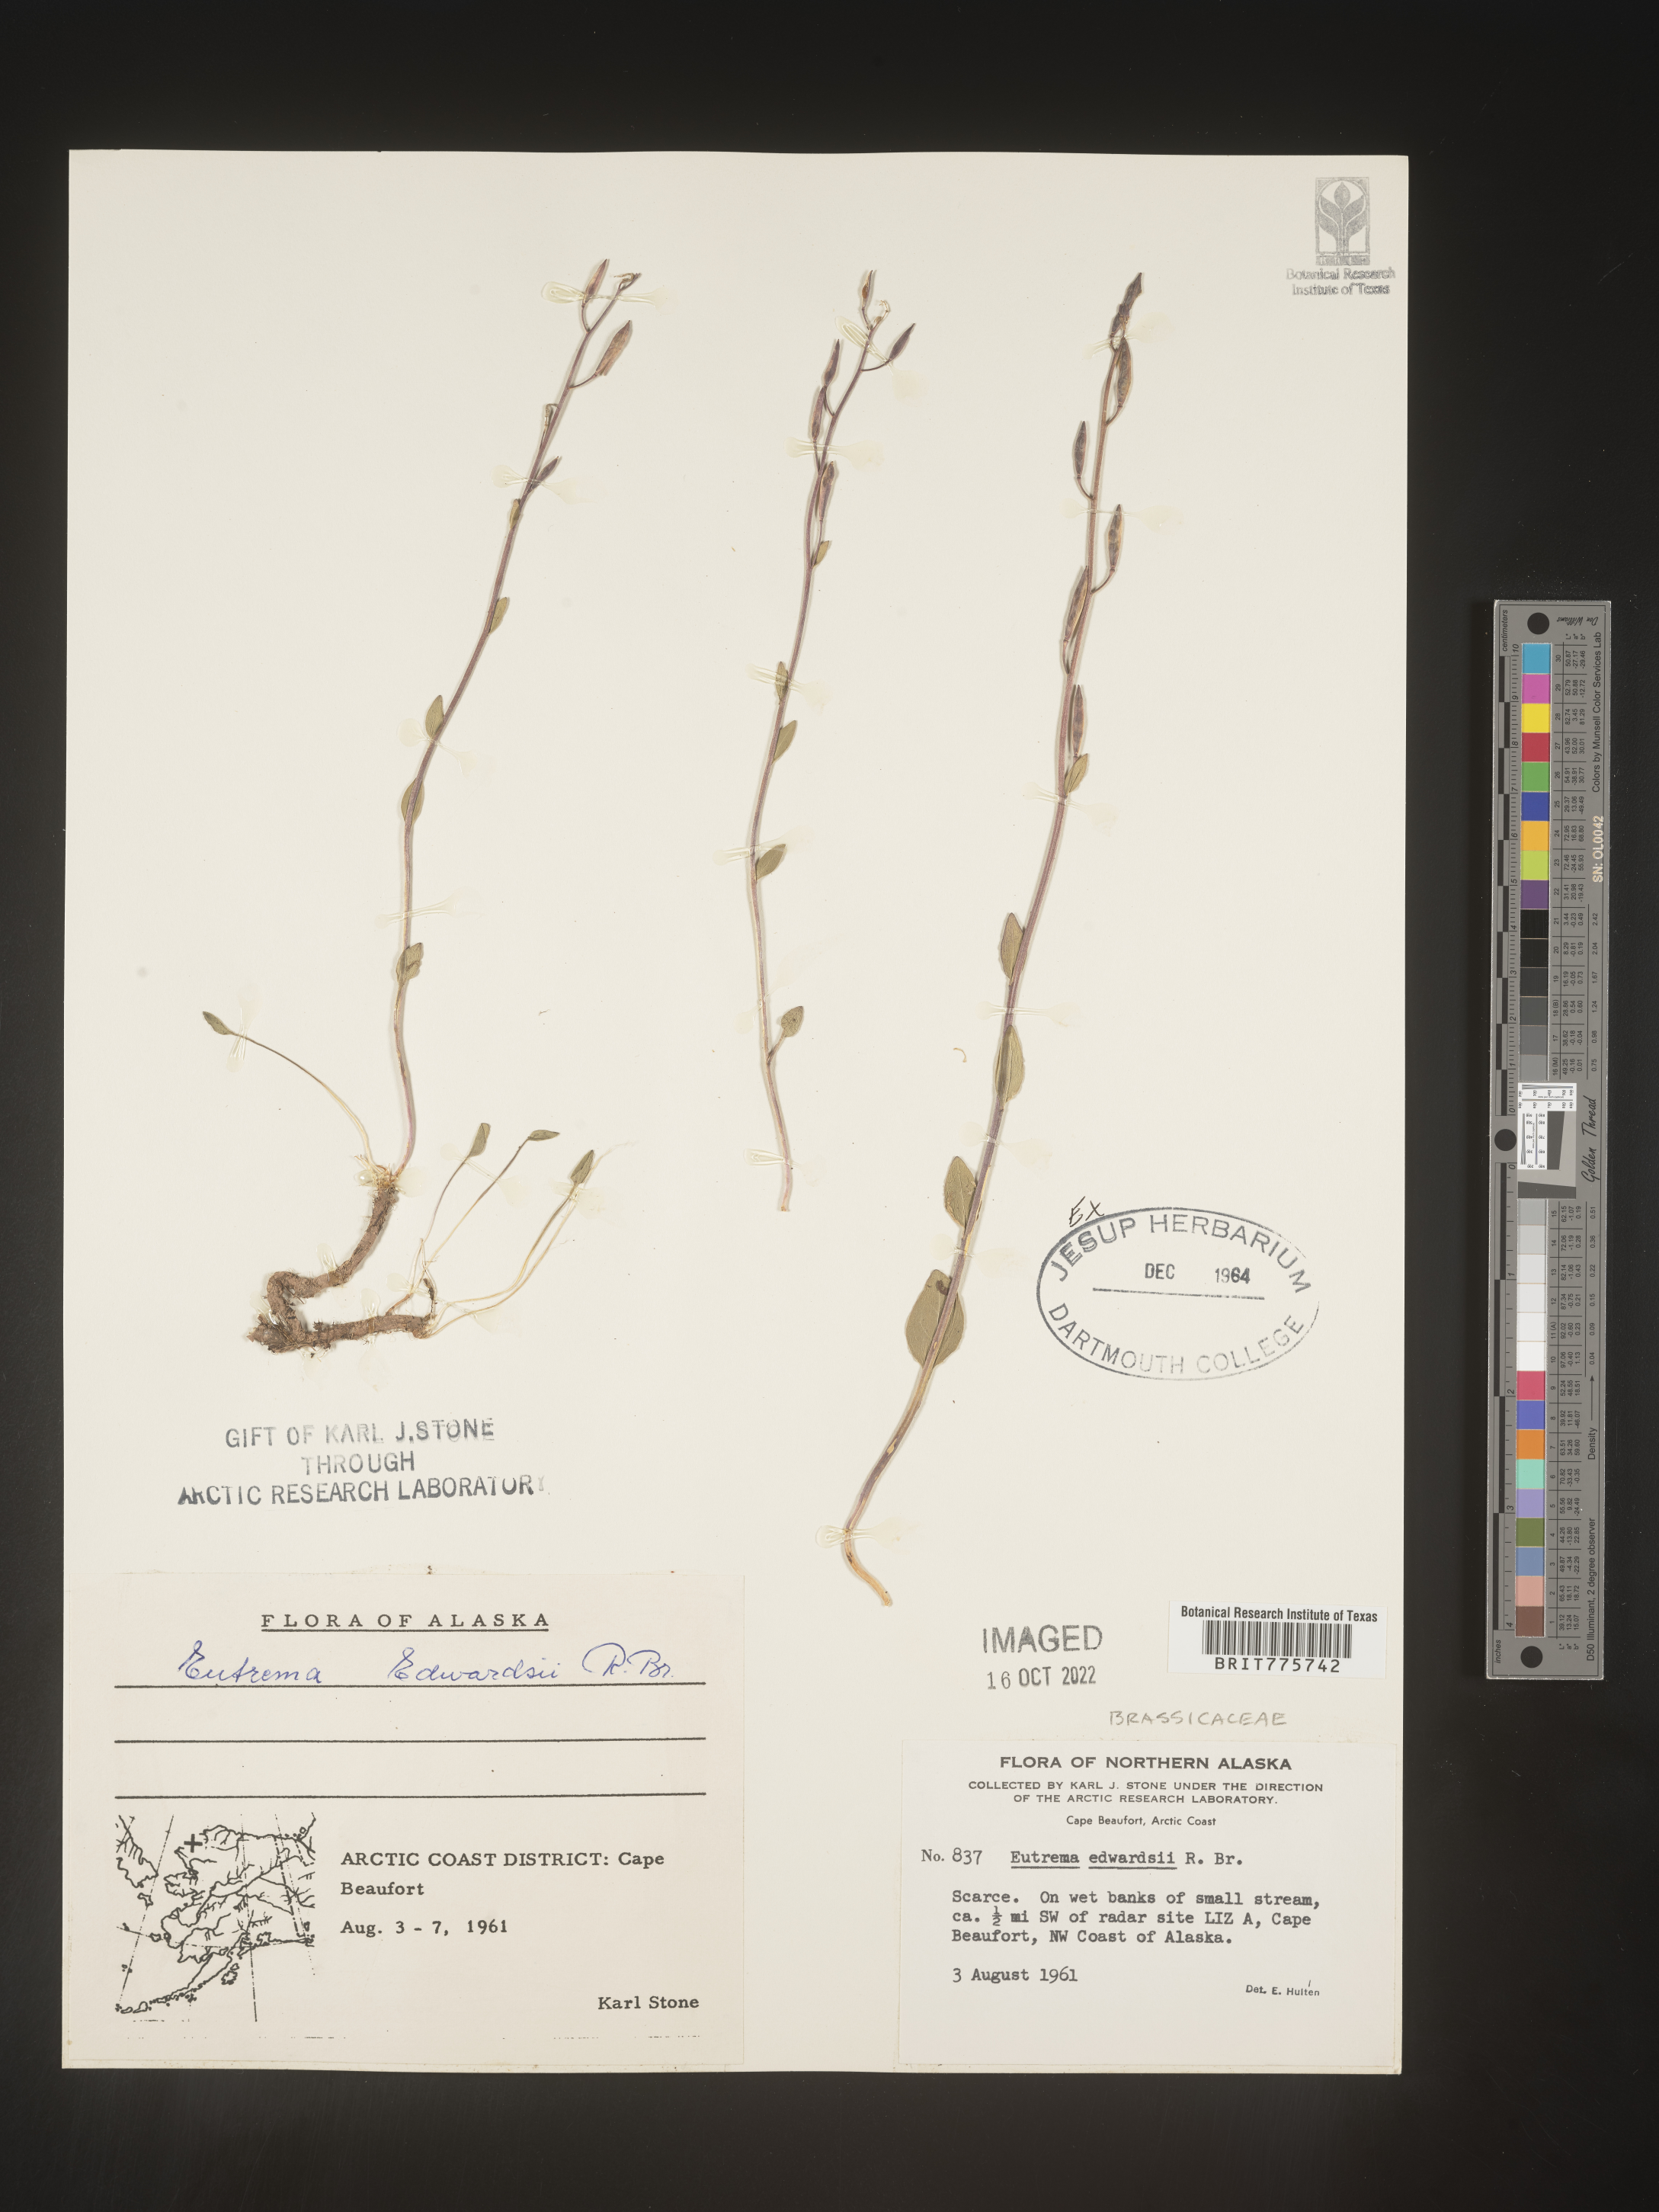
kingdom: Plantae
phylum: Tracheophyta
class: Magnoliopsida
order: Brassicales
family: Brassicaceae
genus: Eutrema
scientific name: Eutrema
